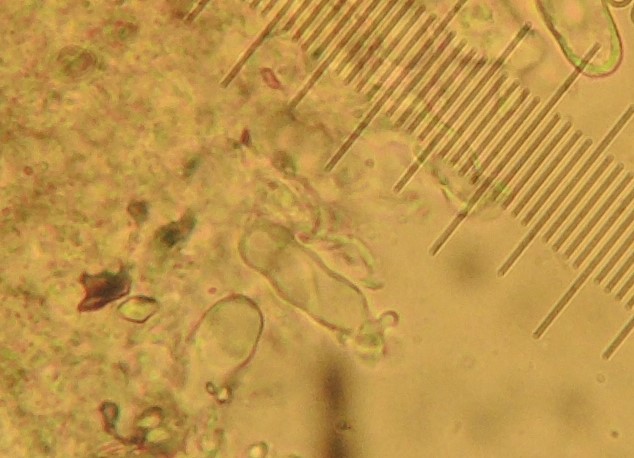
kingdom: Fungi
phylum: Basidiomycota
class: Agaricomycetes
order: Agaricales
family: Pleurotaceae
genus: Resupinatus
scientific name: Resupinatus
